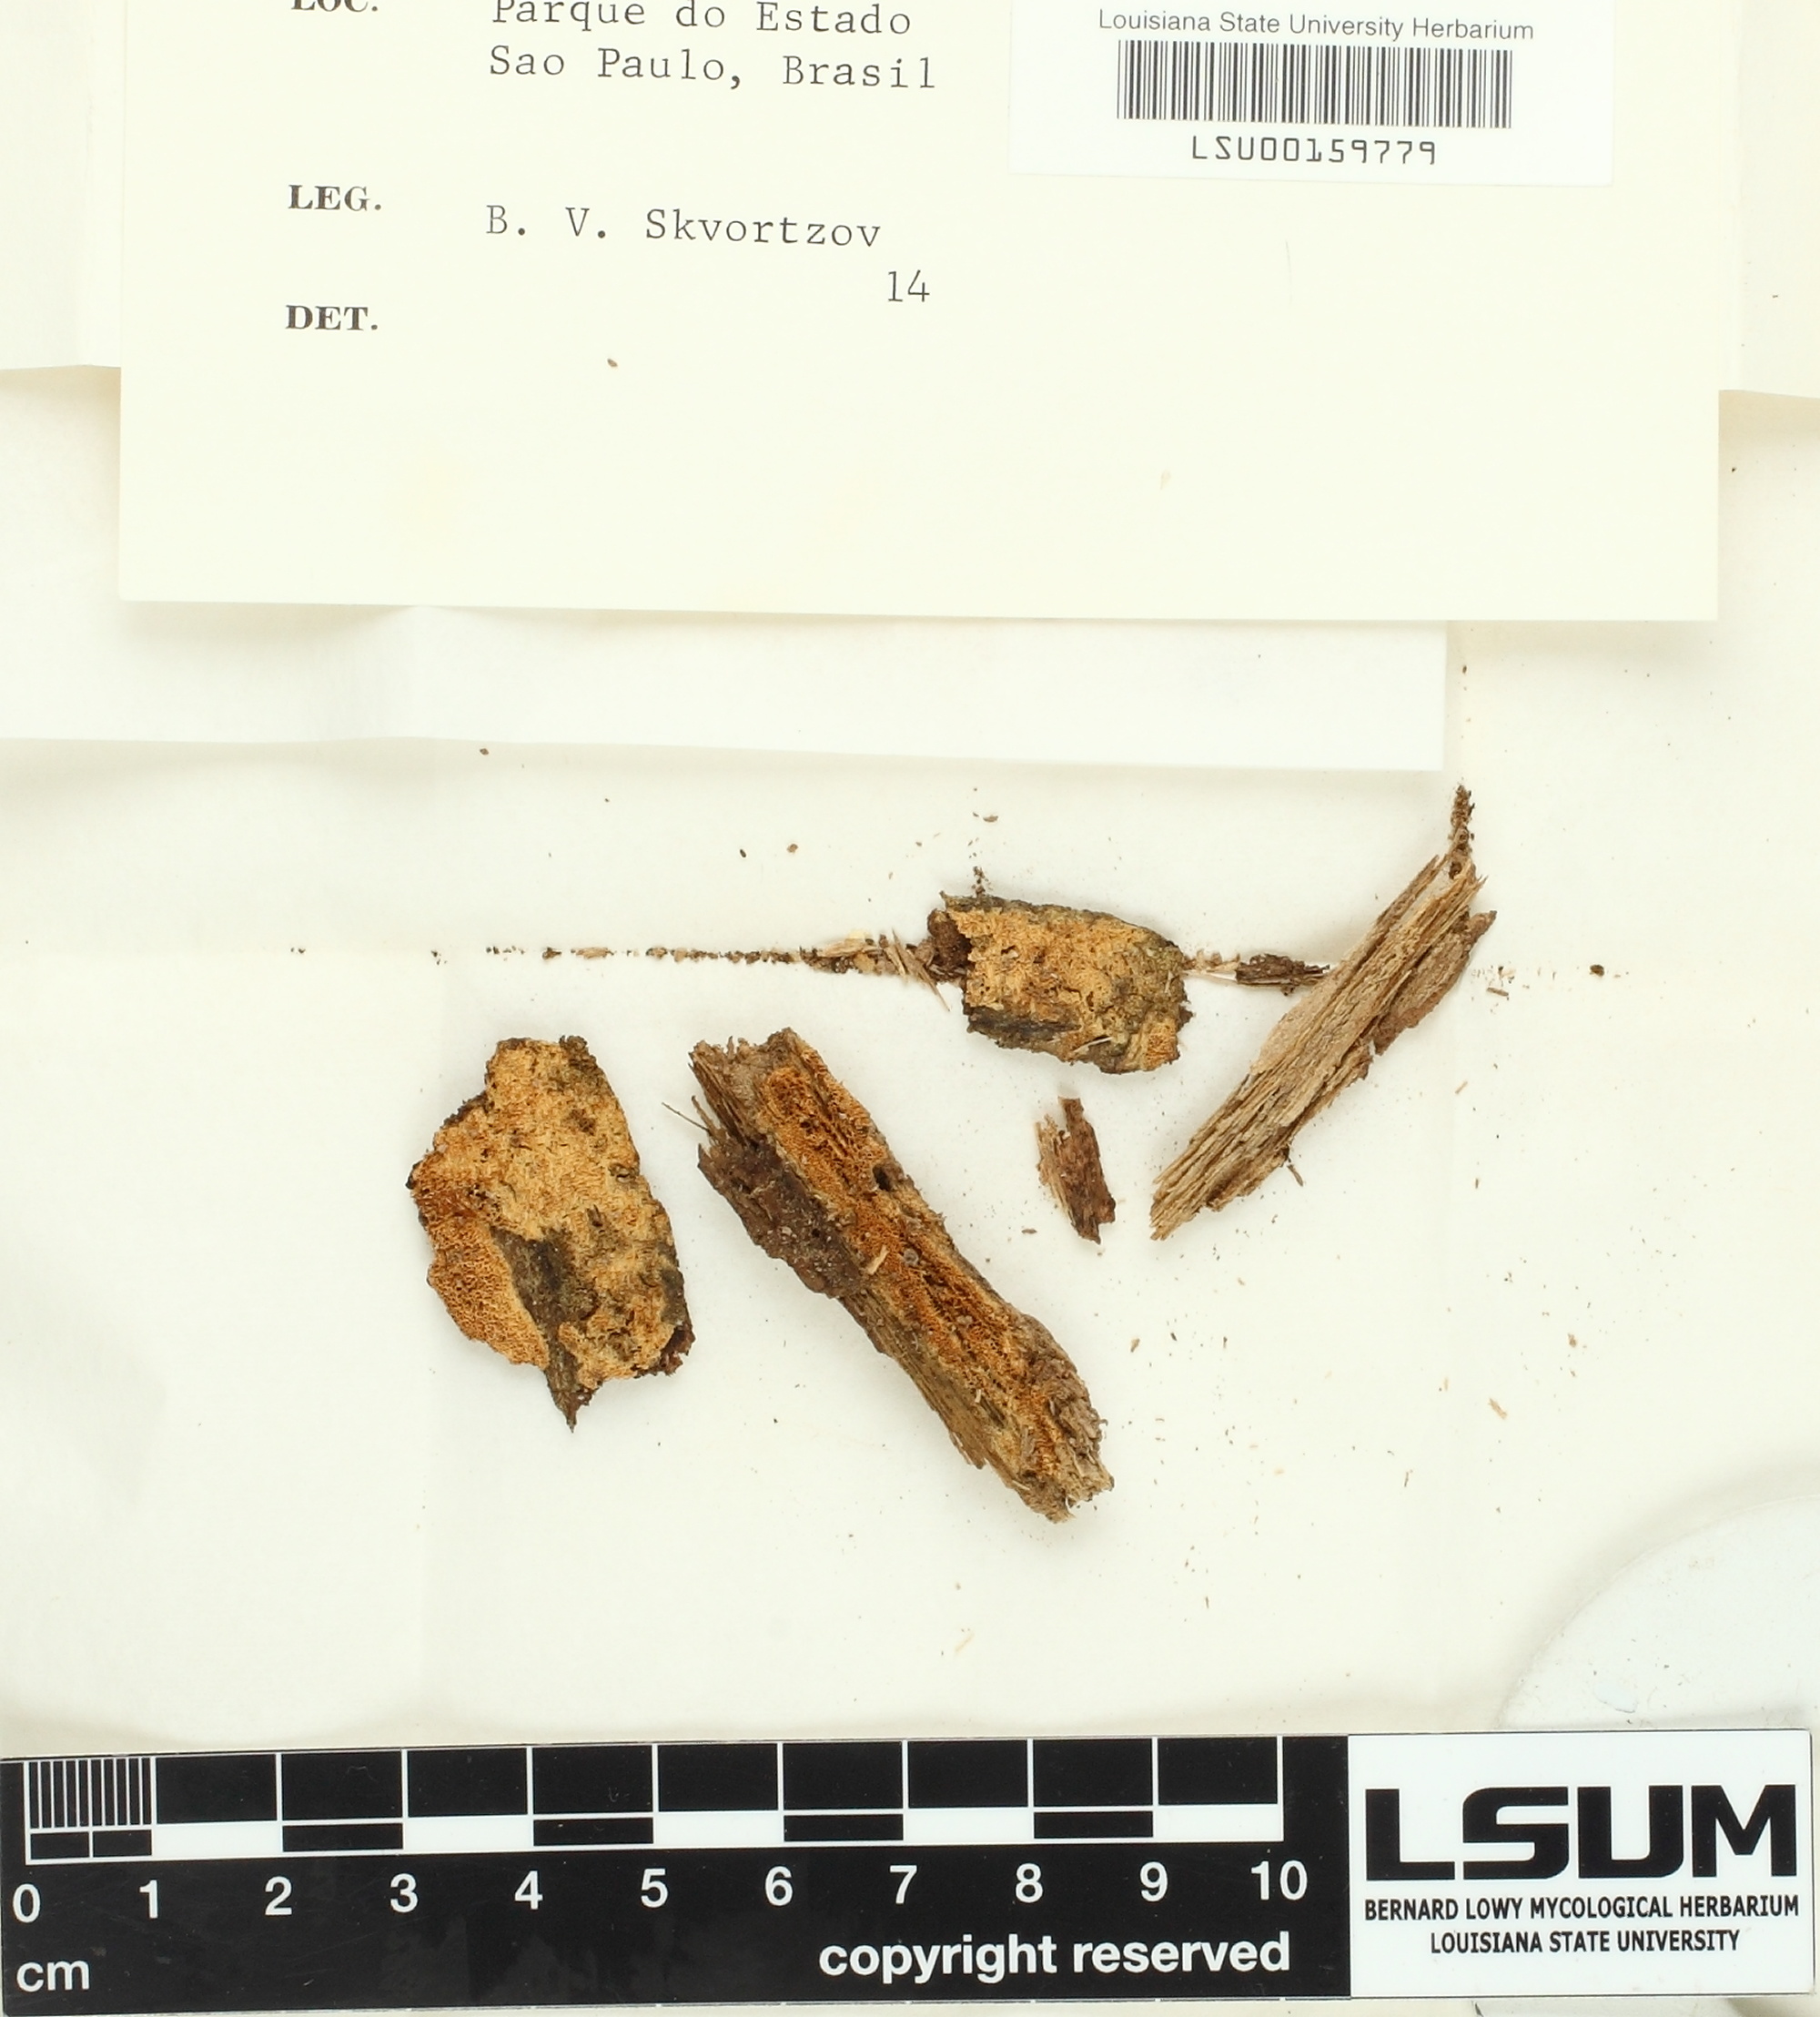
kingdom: Fungi
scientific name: Fungi
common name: Fungi
